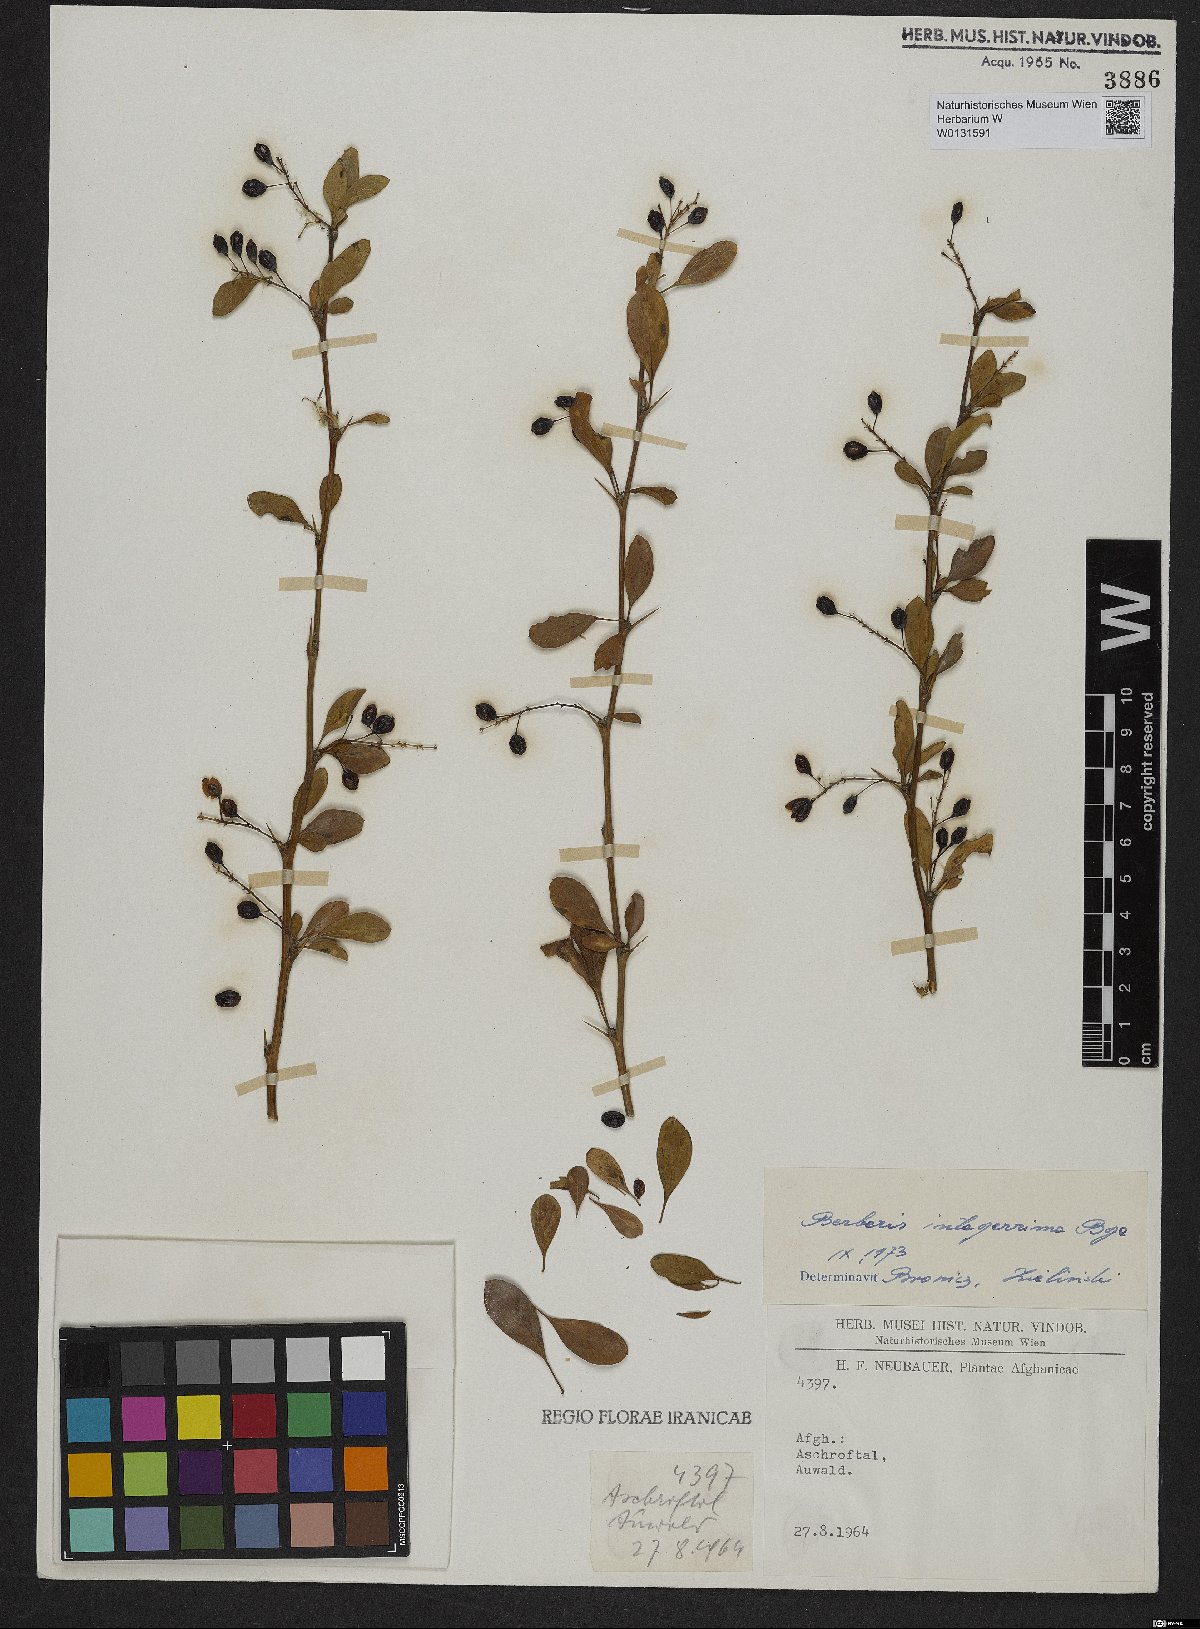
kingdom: Plantae
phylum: Tracheophyta
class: Magnoliopsida
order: Ranunculales
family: Berberidaceae
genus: Berberis
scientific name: Berberis integerrima
